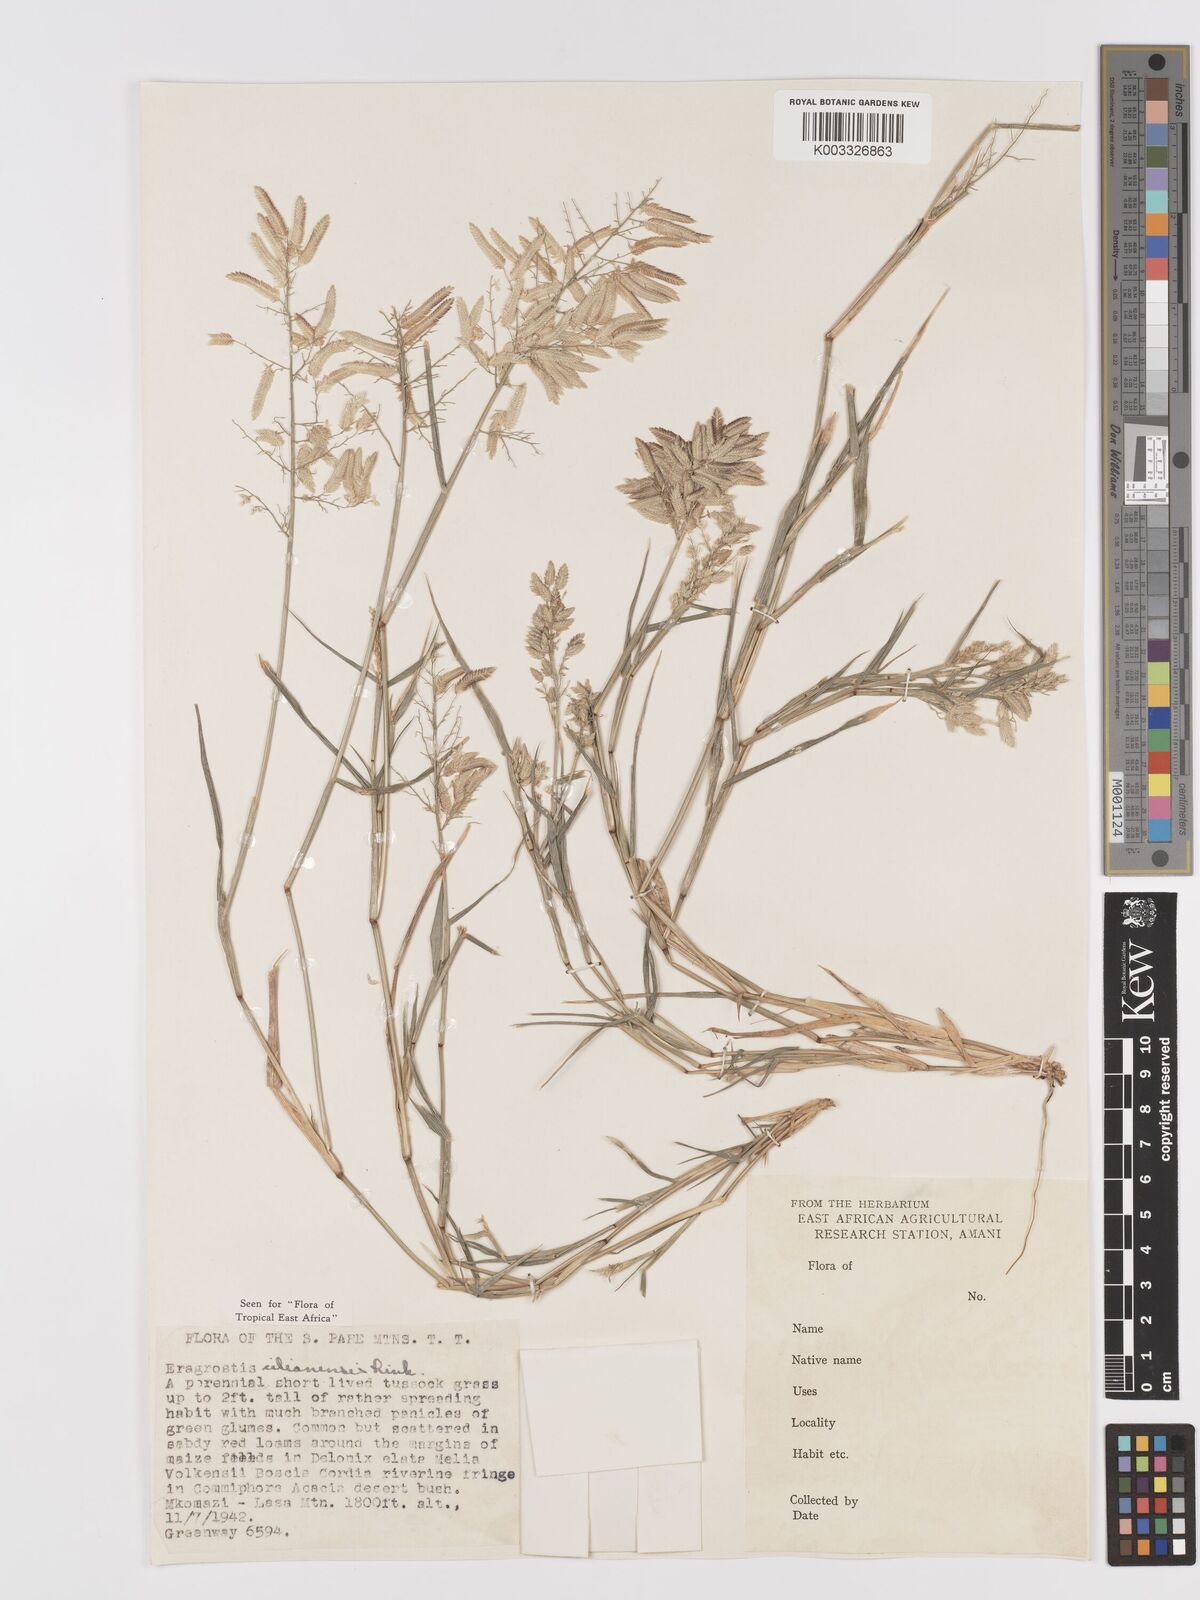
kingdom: Plantae
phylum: Tracheophyta
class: Liliopsida
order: Poales
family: Poaceae
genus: Eragrostis
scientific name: Eragrostis cilianensis
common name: Stinkgrass
